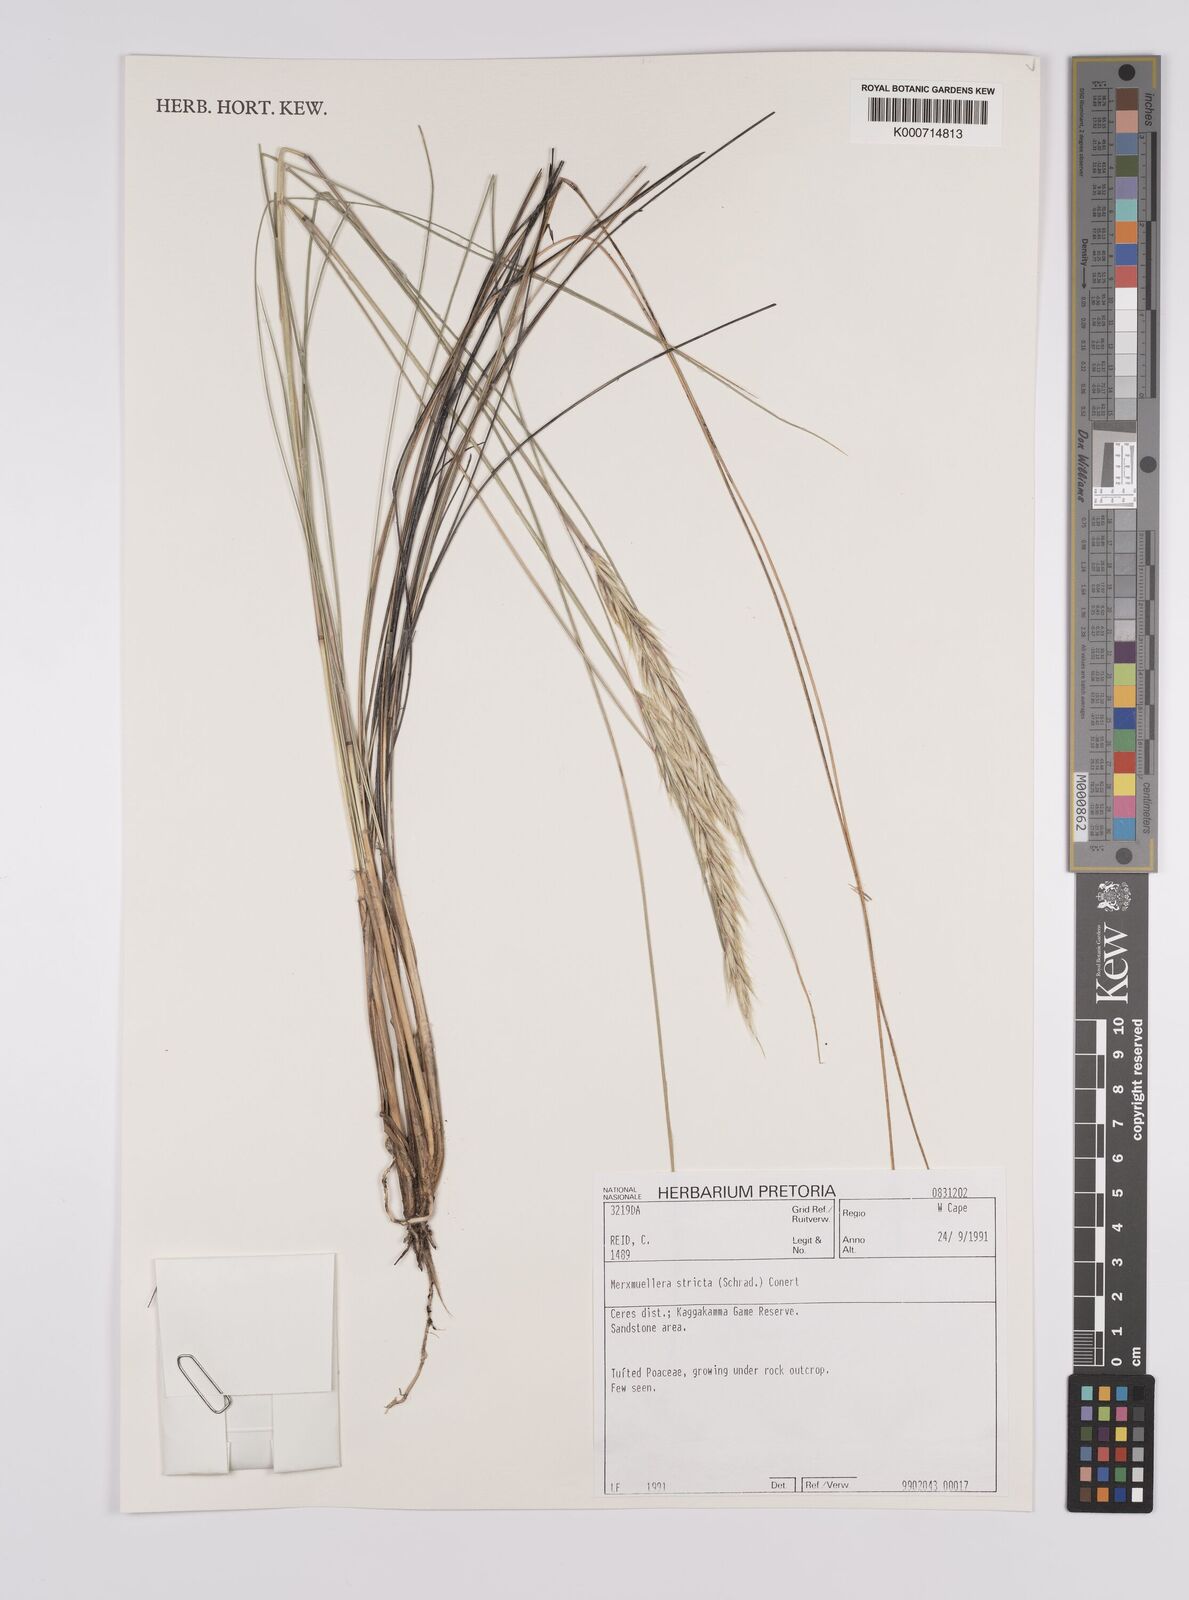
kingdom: Plantae
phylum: Tracheophyta
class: Liliopsida
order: Poales
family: Poaceae
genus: Rytidosperma
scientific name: Rytidosperma
